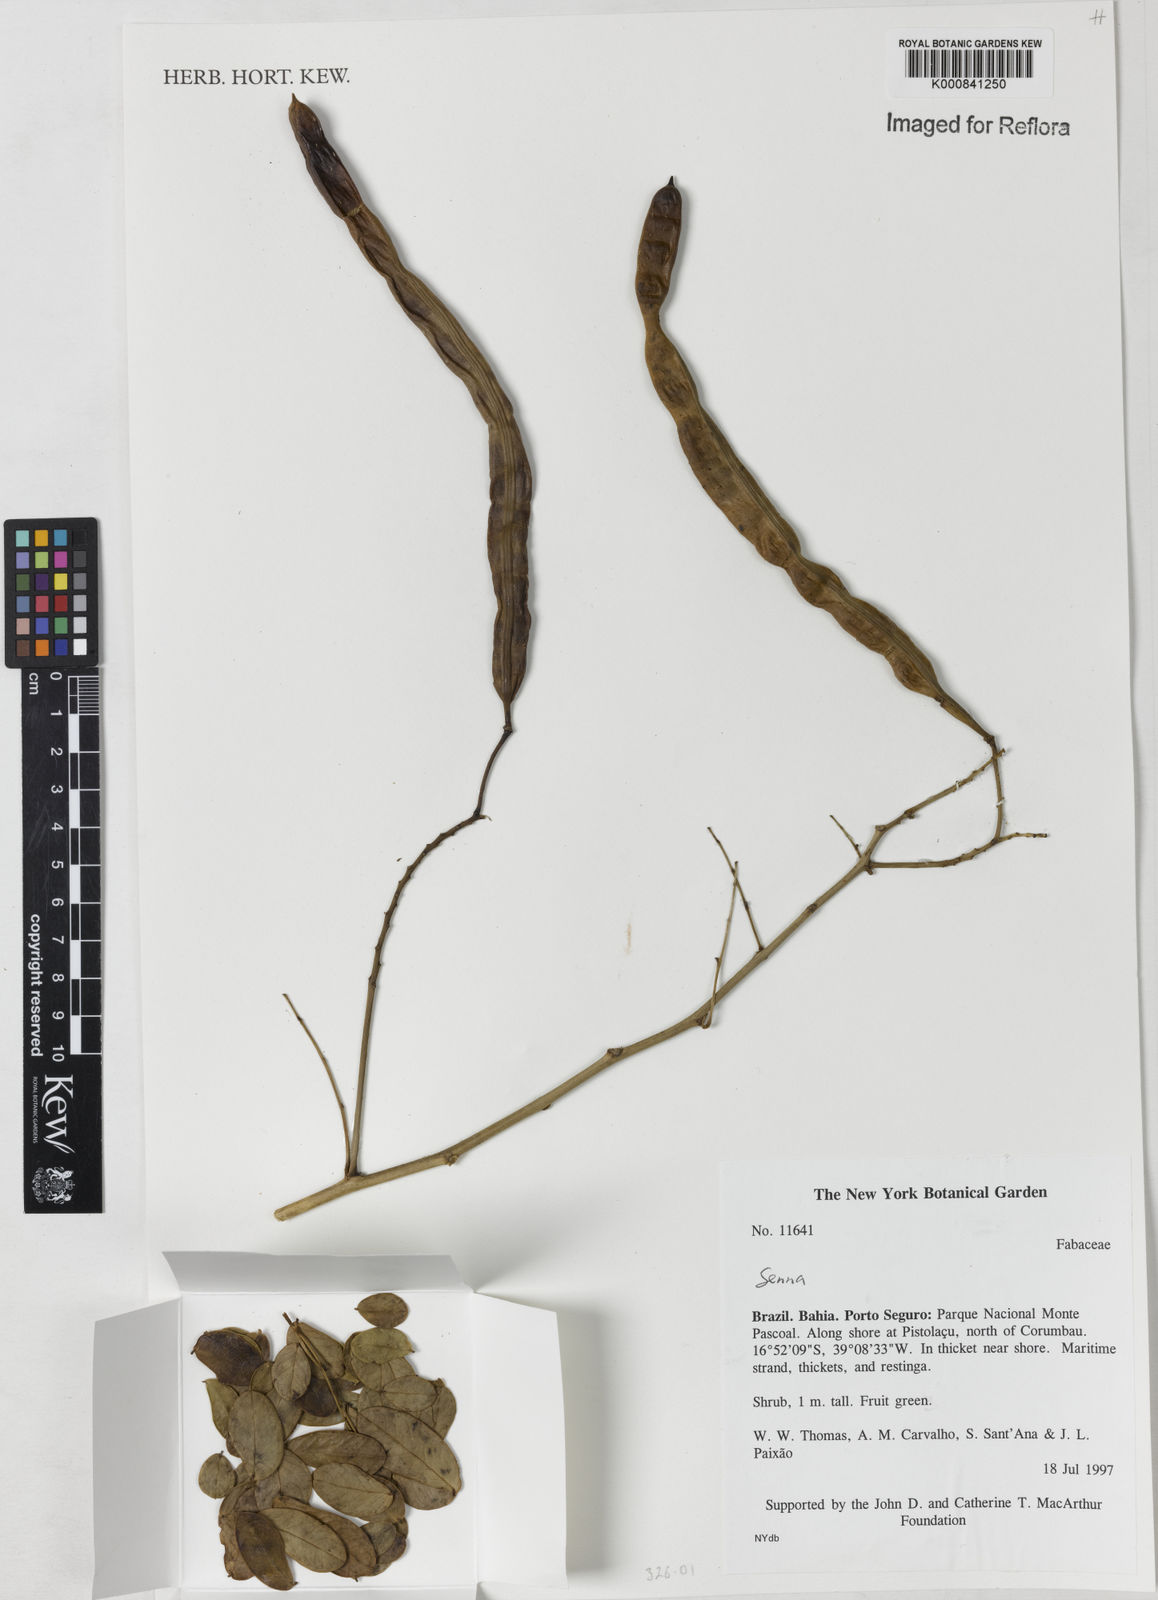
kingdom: Plantae
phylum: Tracheophyta
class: Magnoliopsida
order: Fabales
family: Fabaceae
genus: Senna
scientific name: Senna
